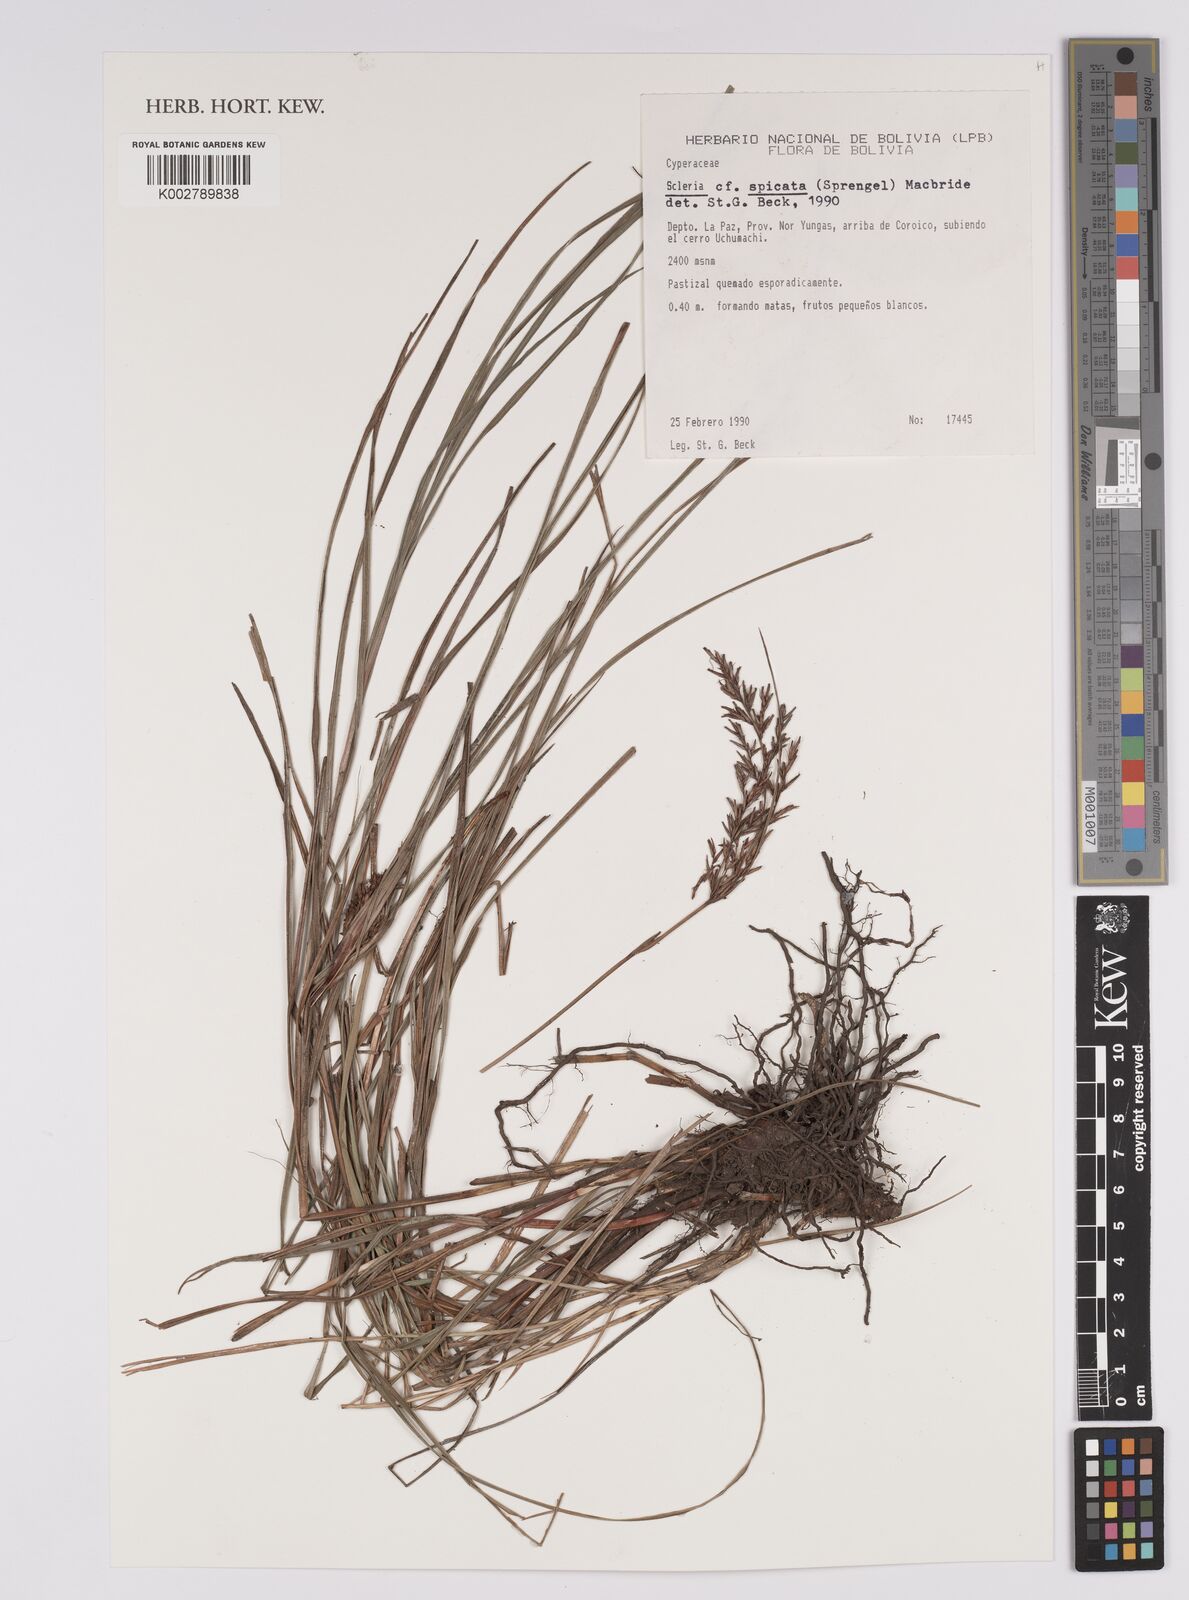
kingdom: Plantae
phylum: Tracheophyta
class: Liliopsida
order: Poales
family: Cyperaceae
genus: Scleria
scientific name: Scleria spicata
